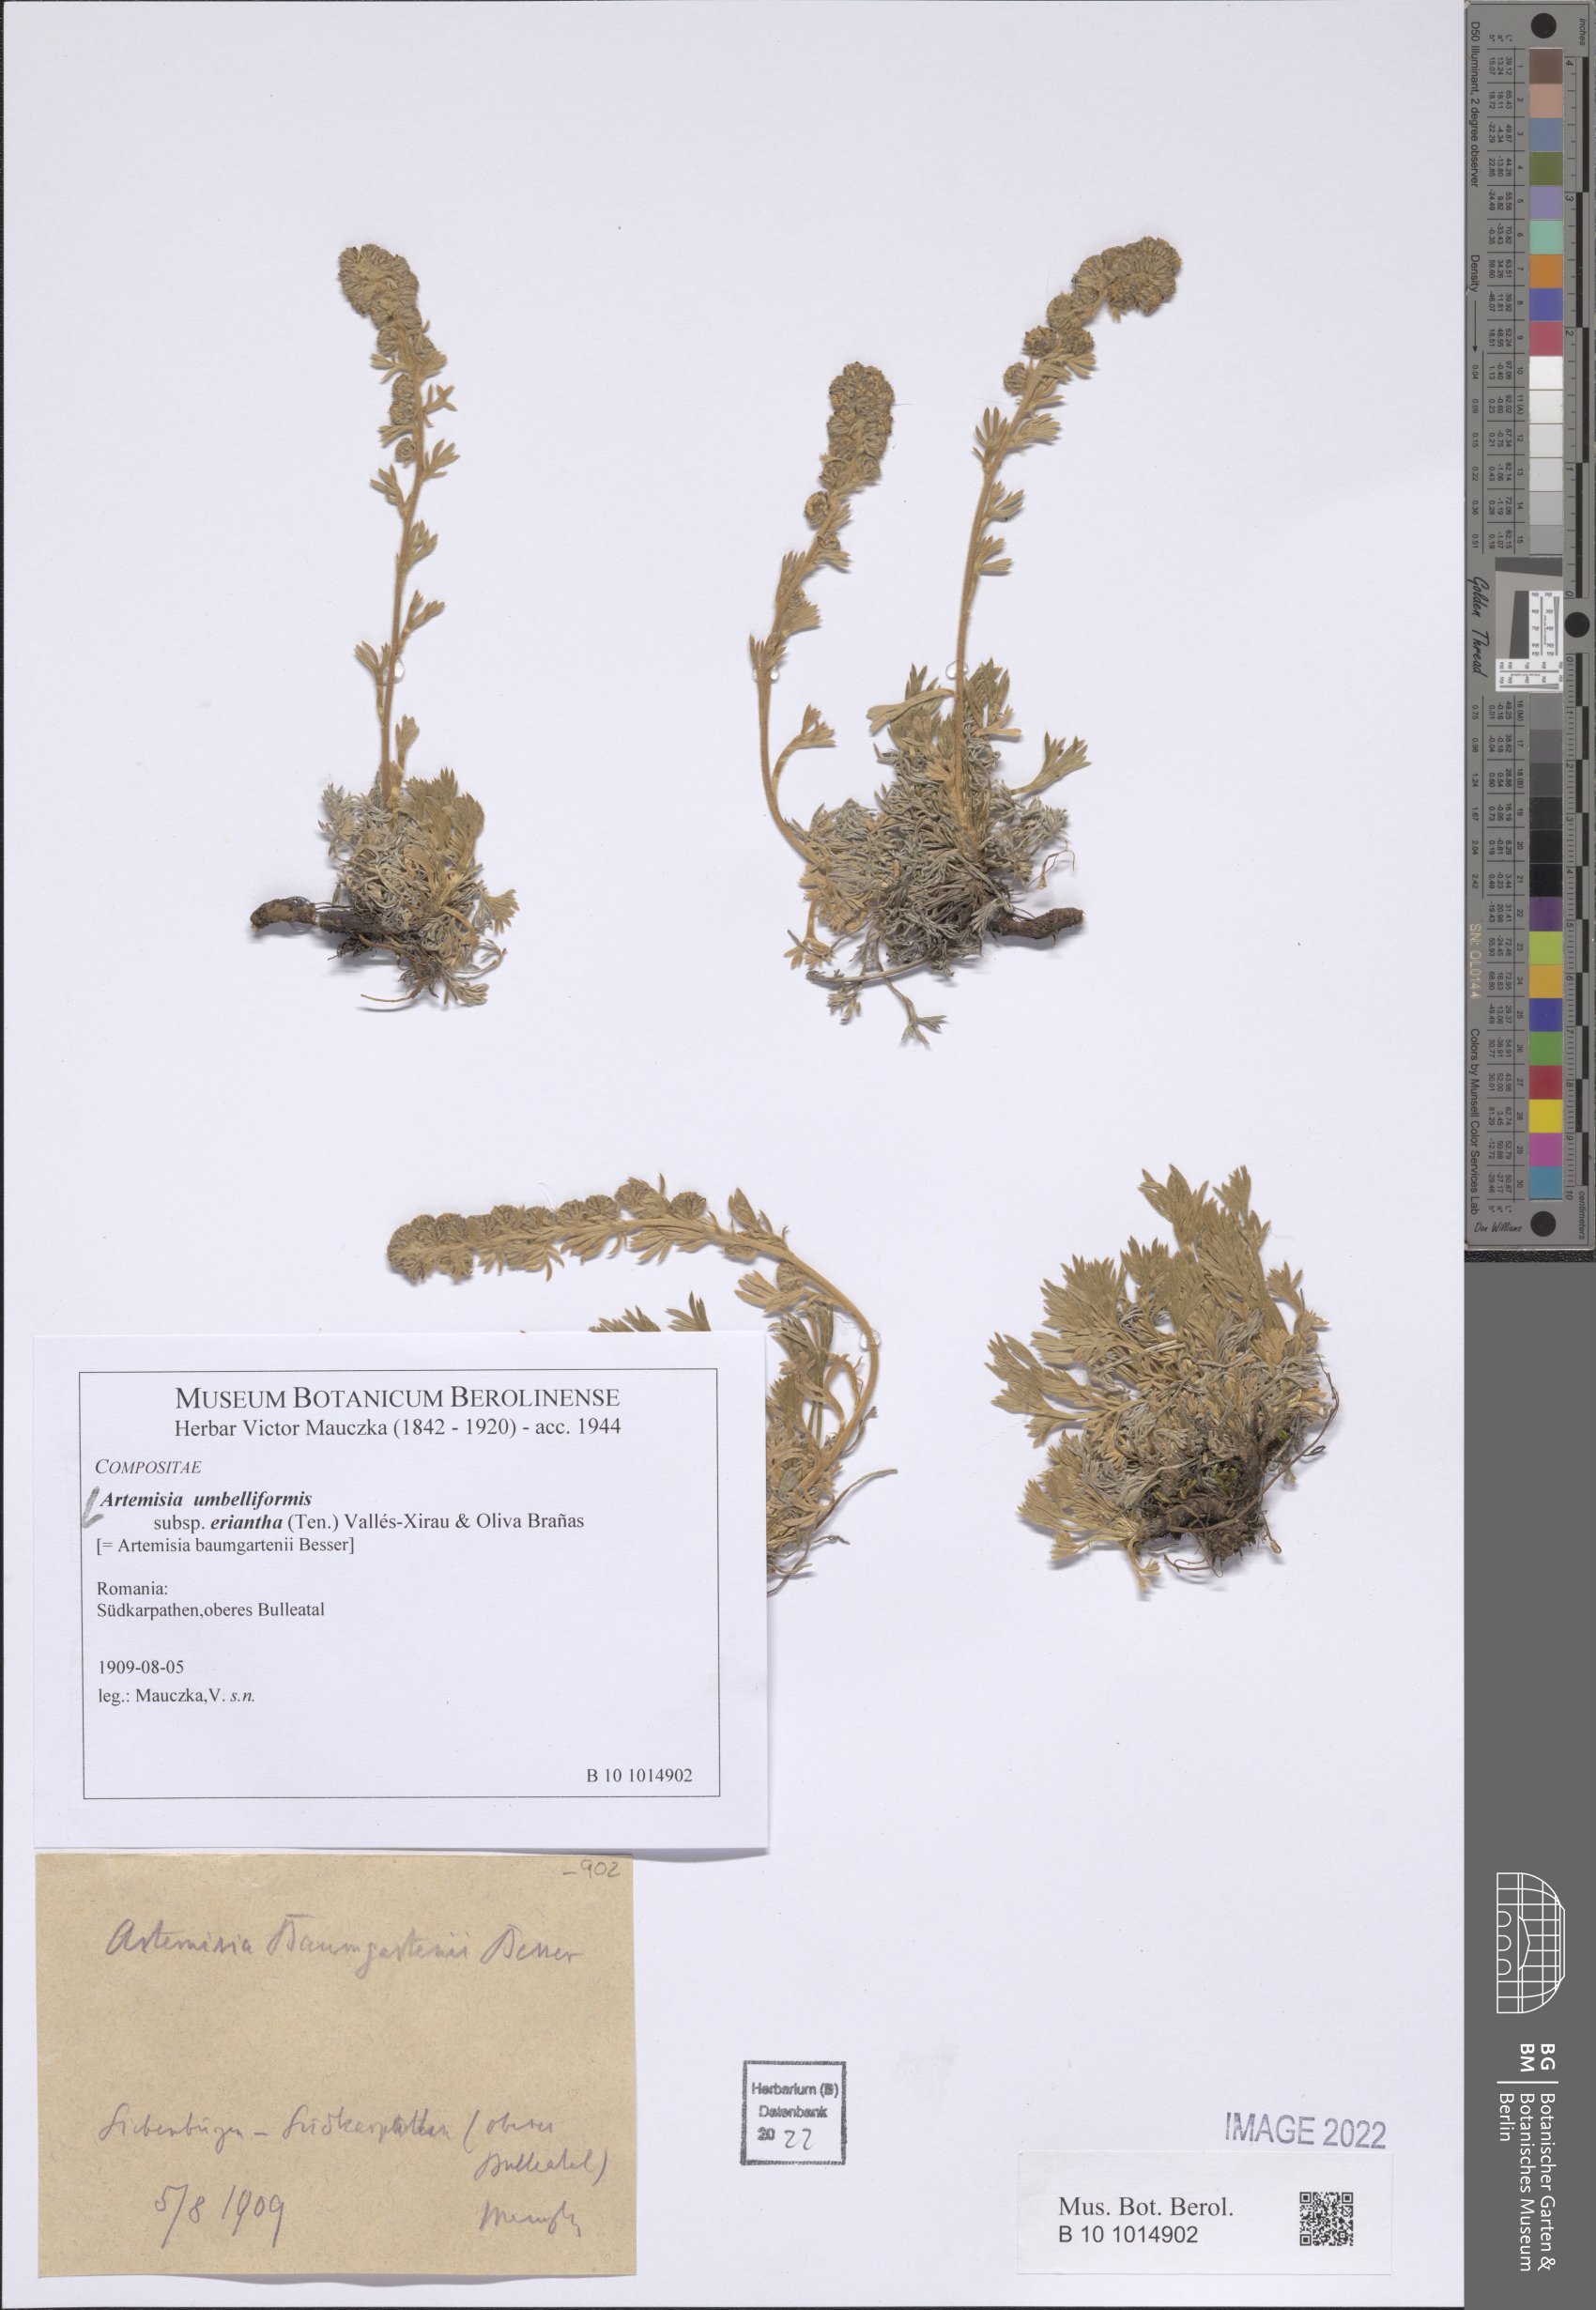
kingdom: Plantae
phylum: Tracheophyta
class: Magnoliopsida
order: Asterales
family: Asteraceae
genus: Artemisia
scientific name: Artemisia eriantha
